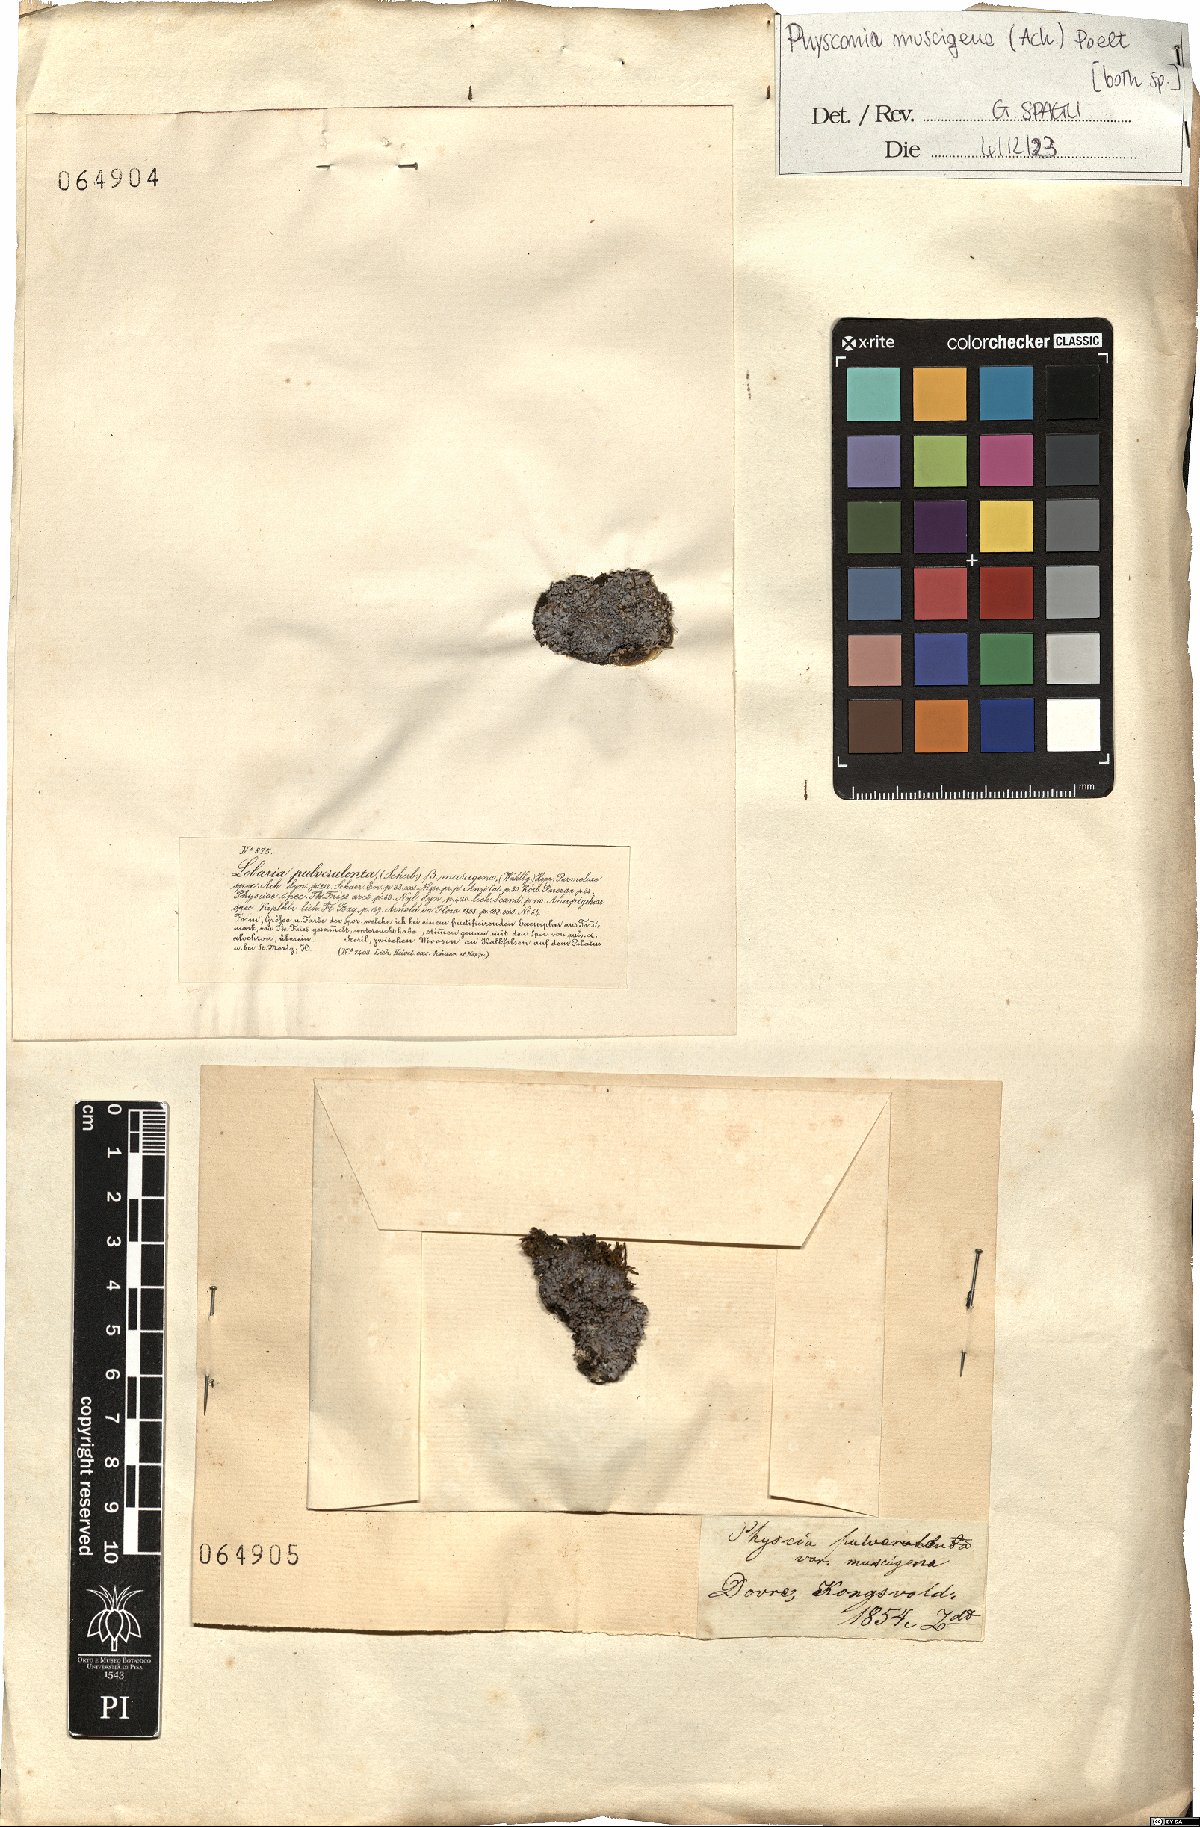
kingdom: Fungi
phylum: Ascomycota
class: Lecanoromycetes
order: Caliciales
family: Physciaceae
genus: Physconia
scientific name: Physconia muscigena
